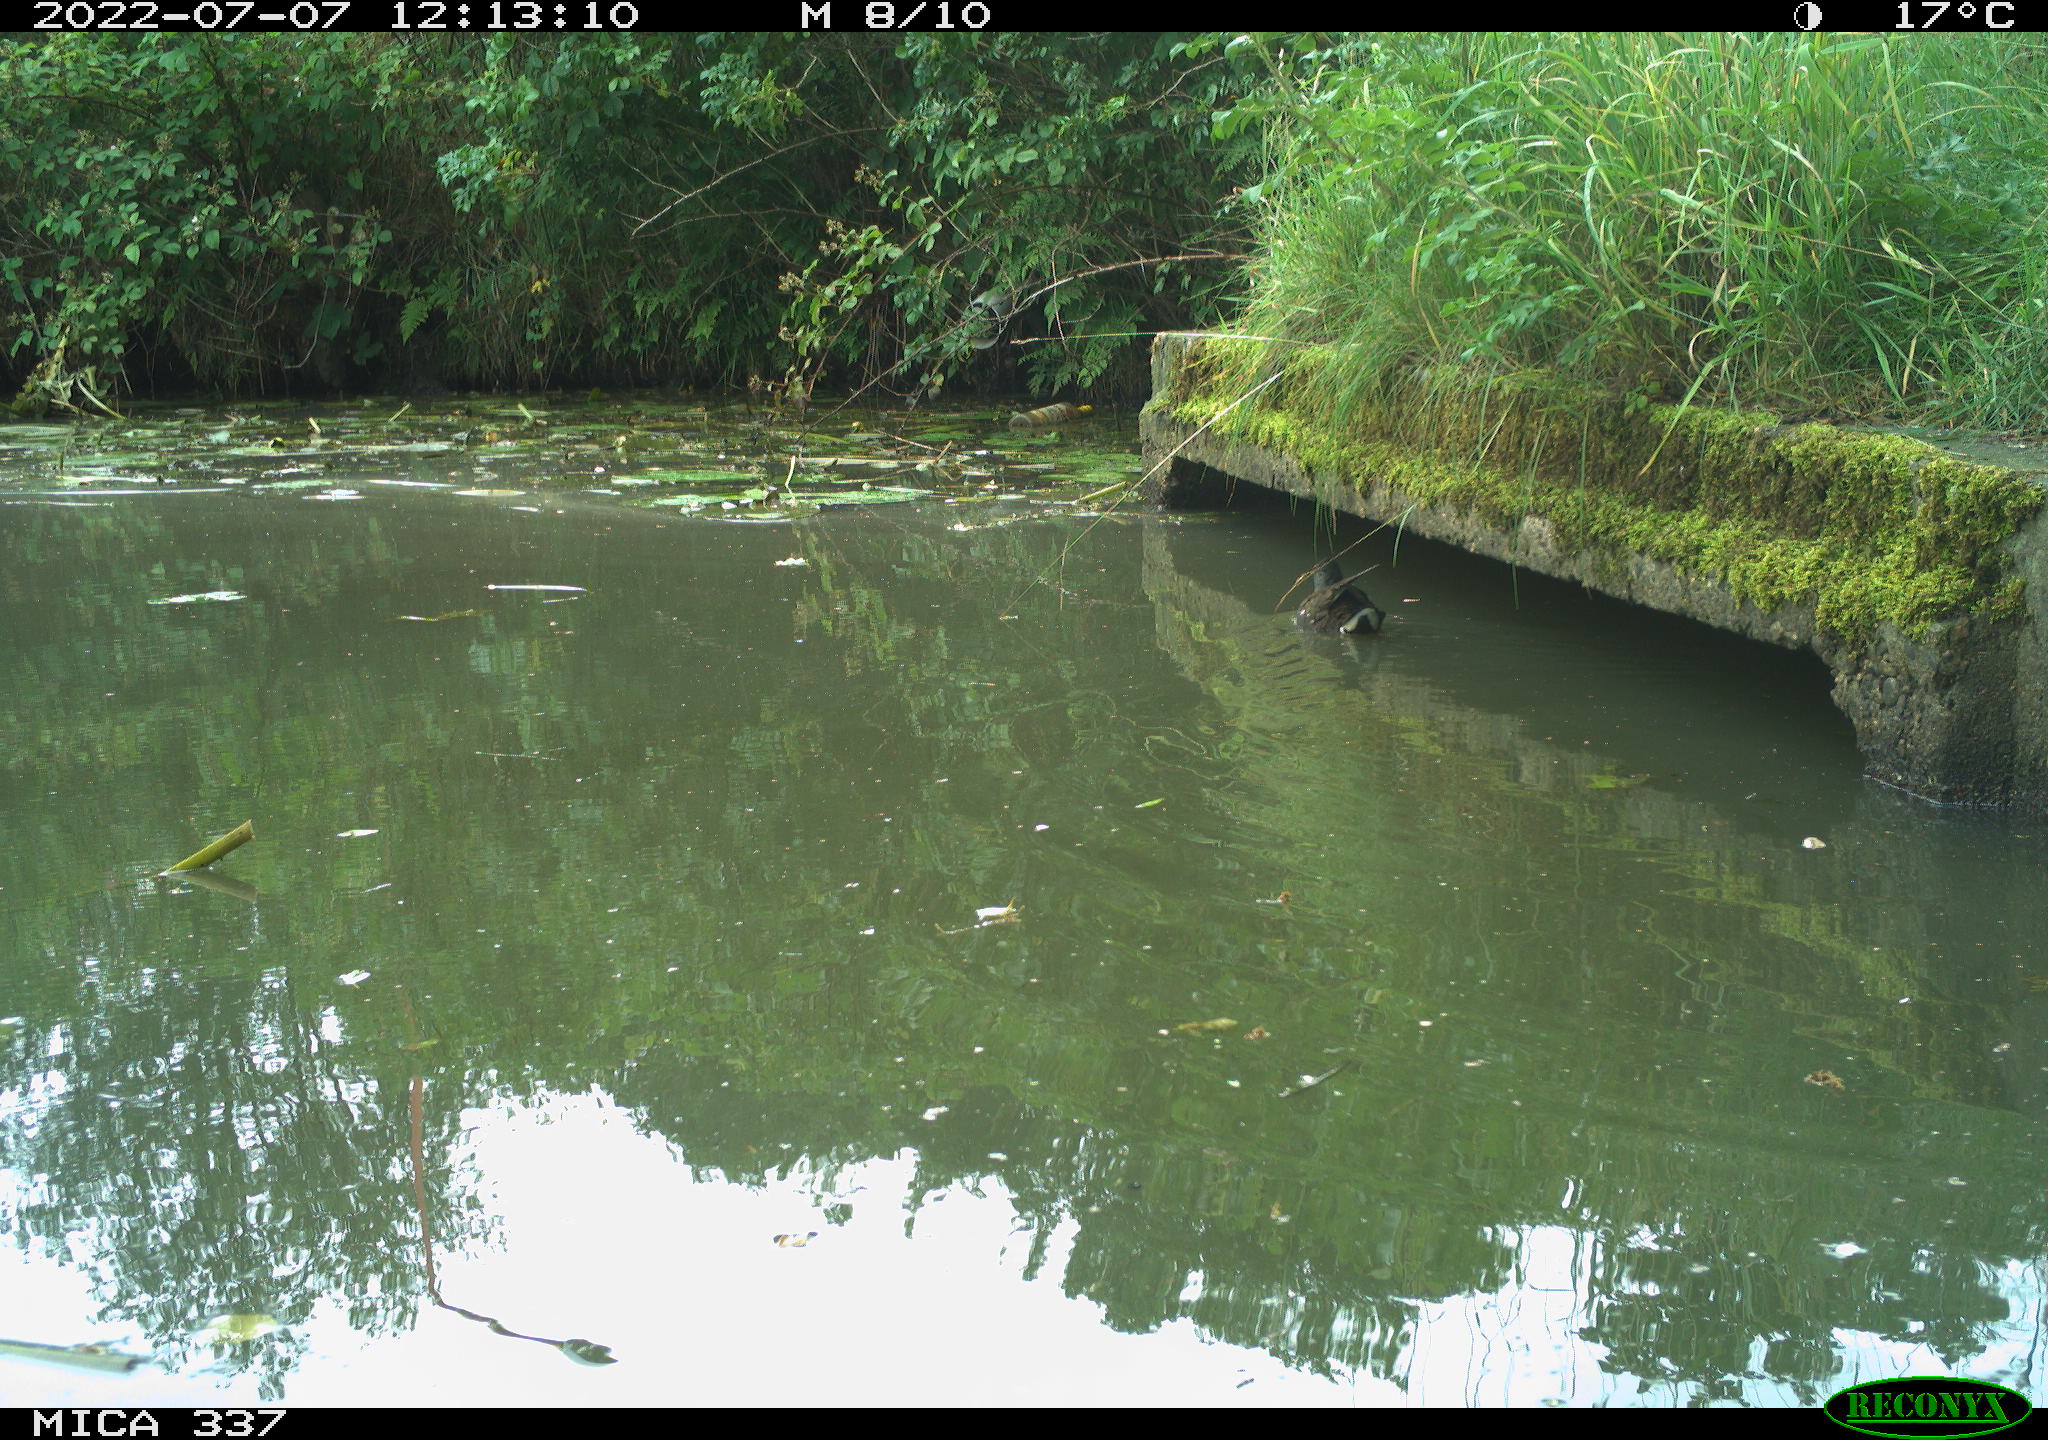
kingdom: Animalia
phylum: Chordata
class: Aves
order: Gruiformes
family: Rallidae
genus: Gallinula
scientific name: Gallinula chloropus
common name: Common moorhen
